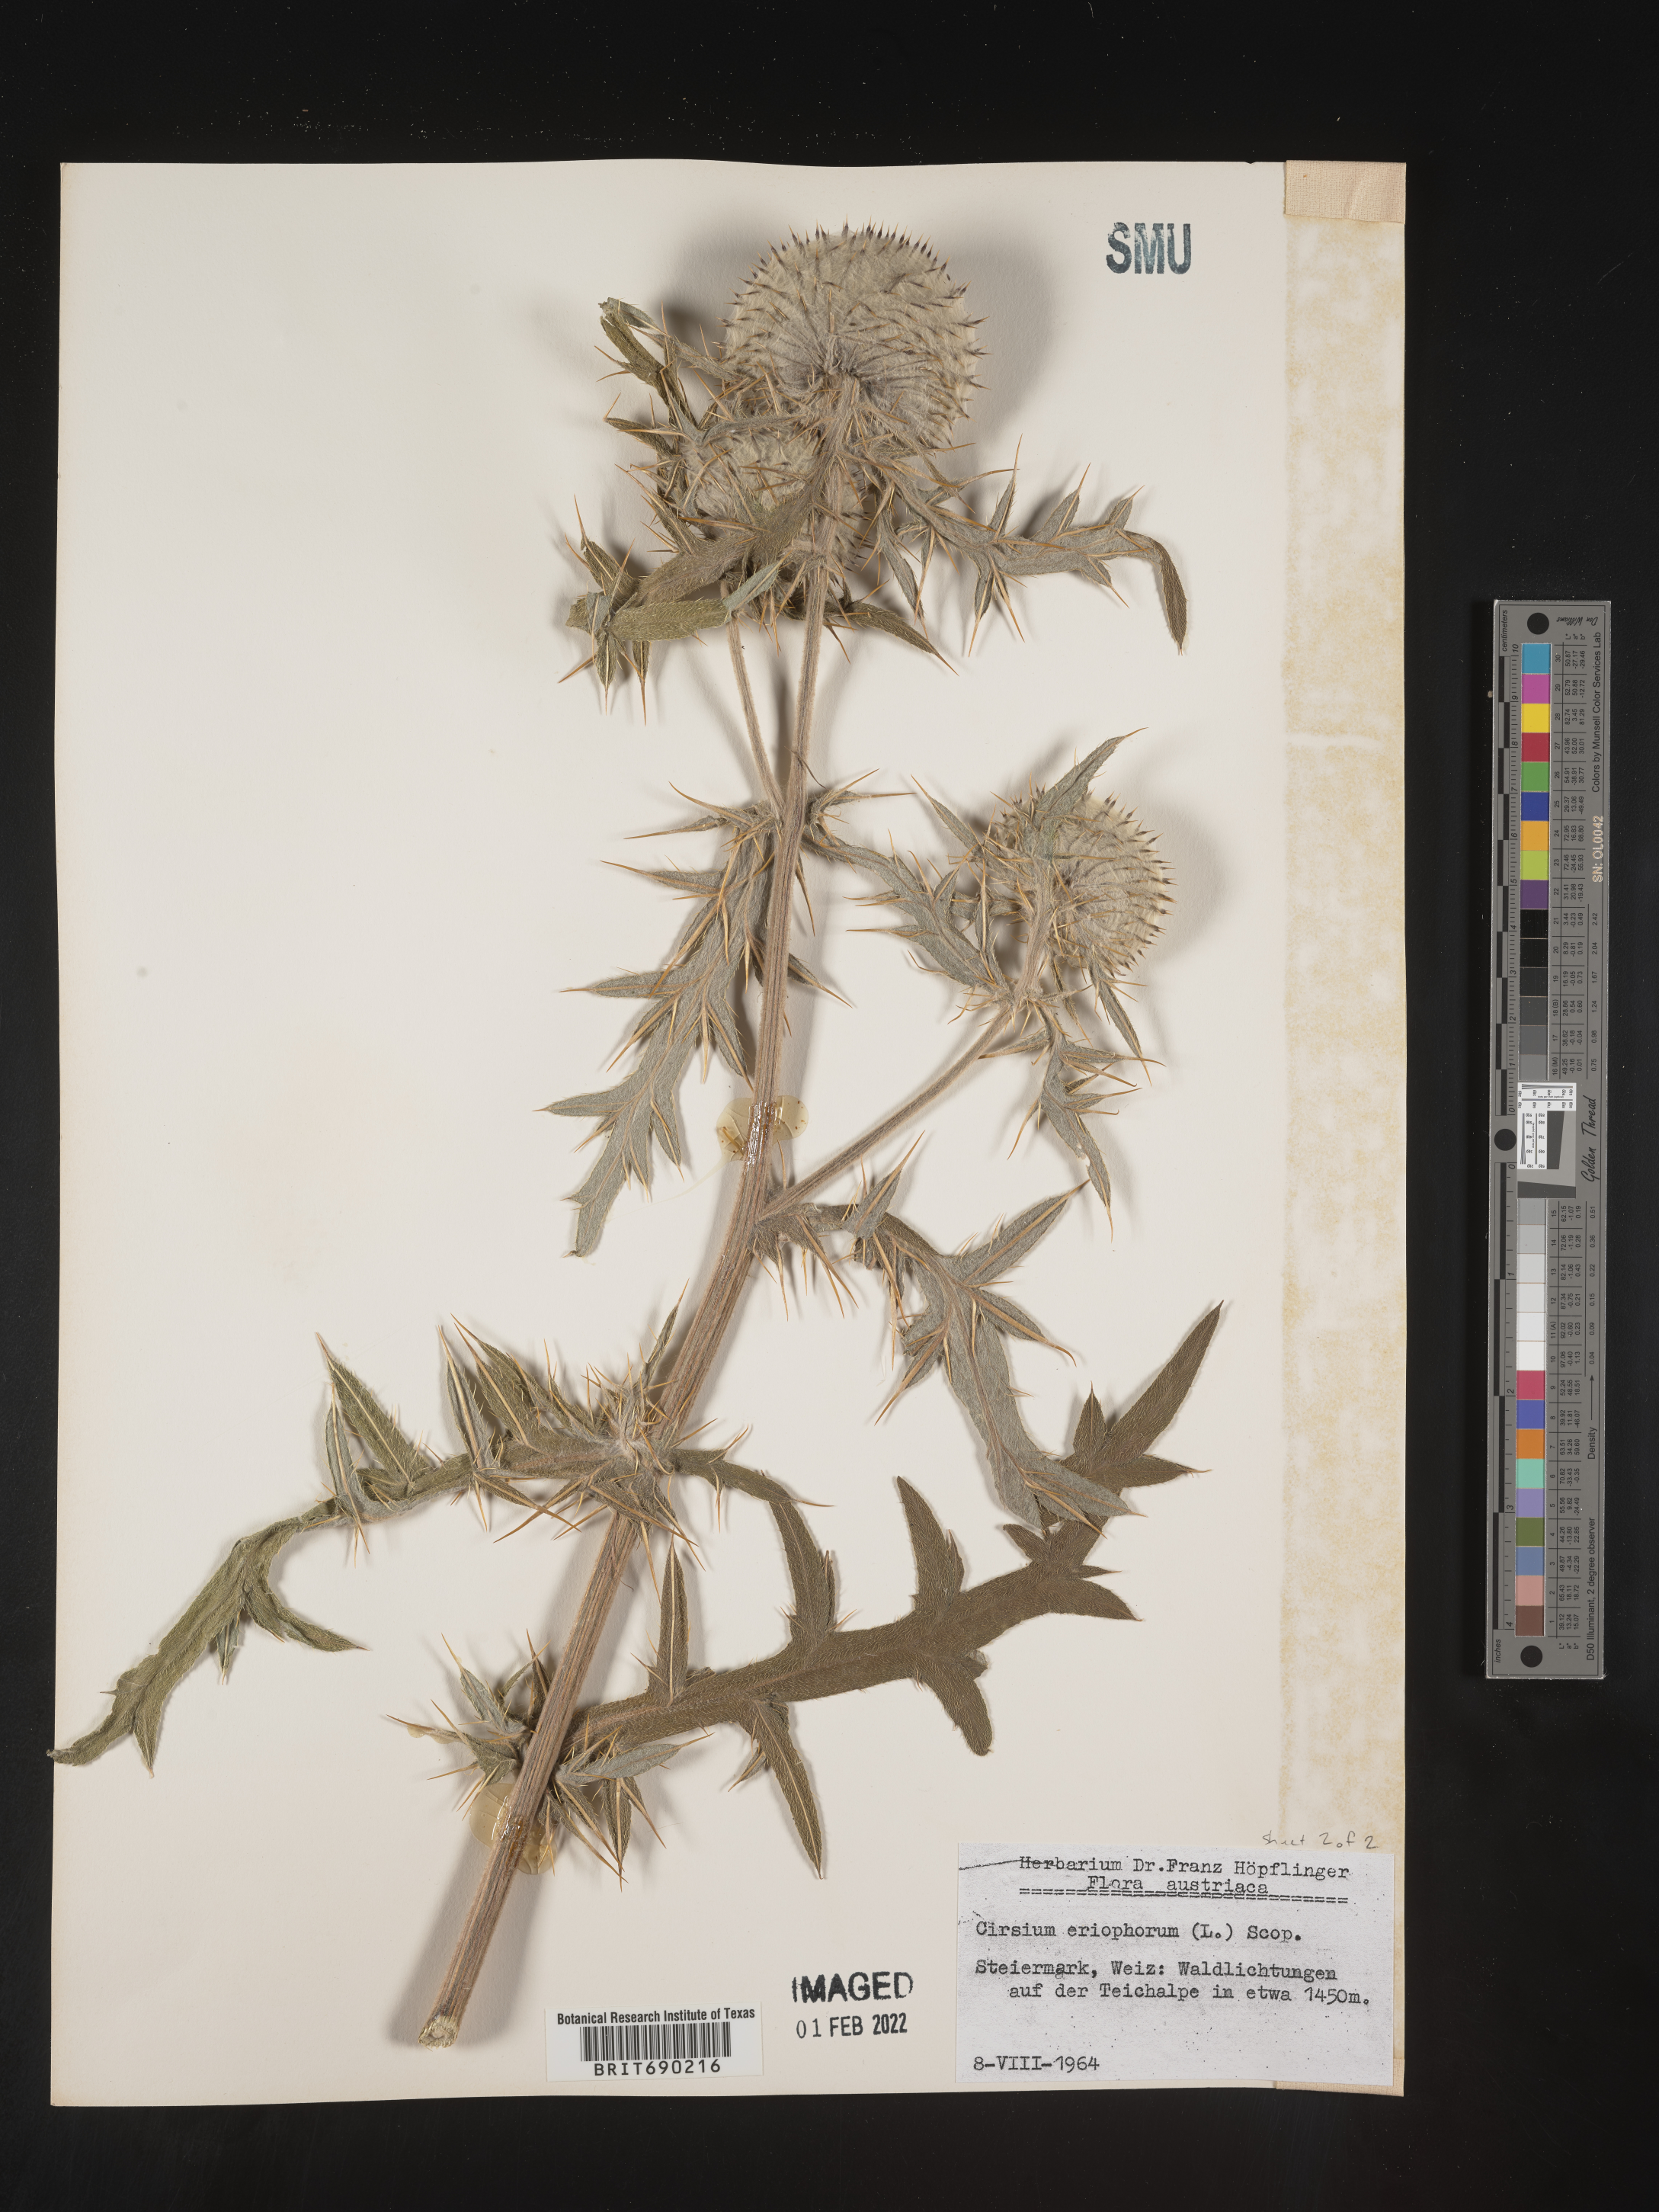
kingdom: Plantae
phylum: Tracheophyta
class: Magnoliopsida
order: Asterales
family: Asteraceae
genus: Cirsium
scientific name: Cirsium
